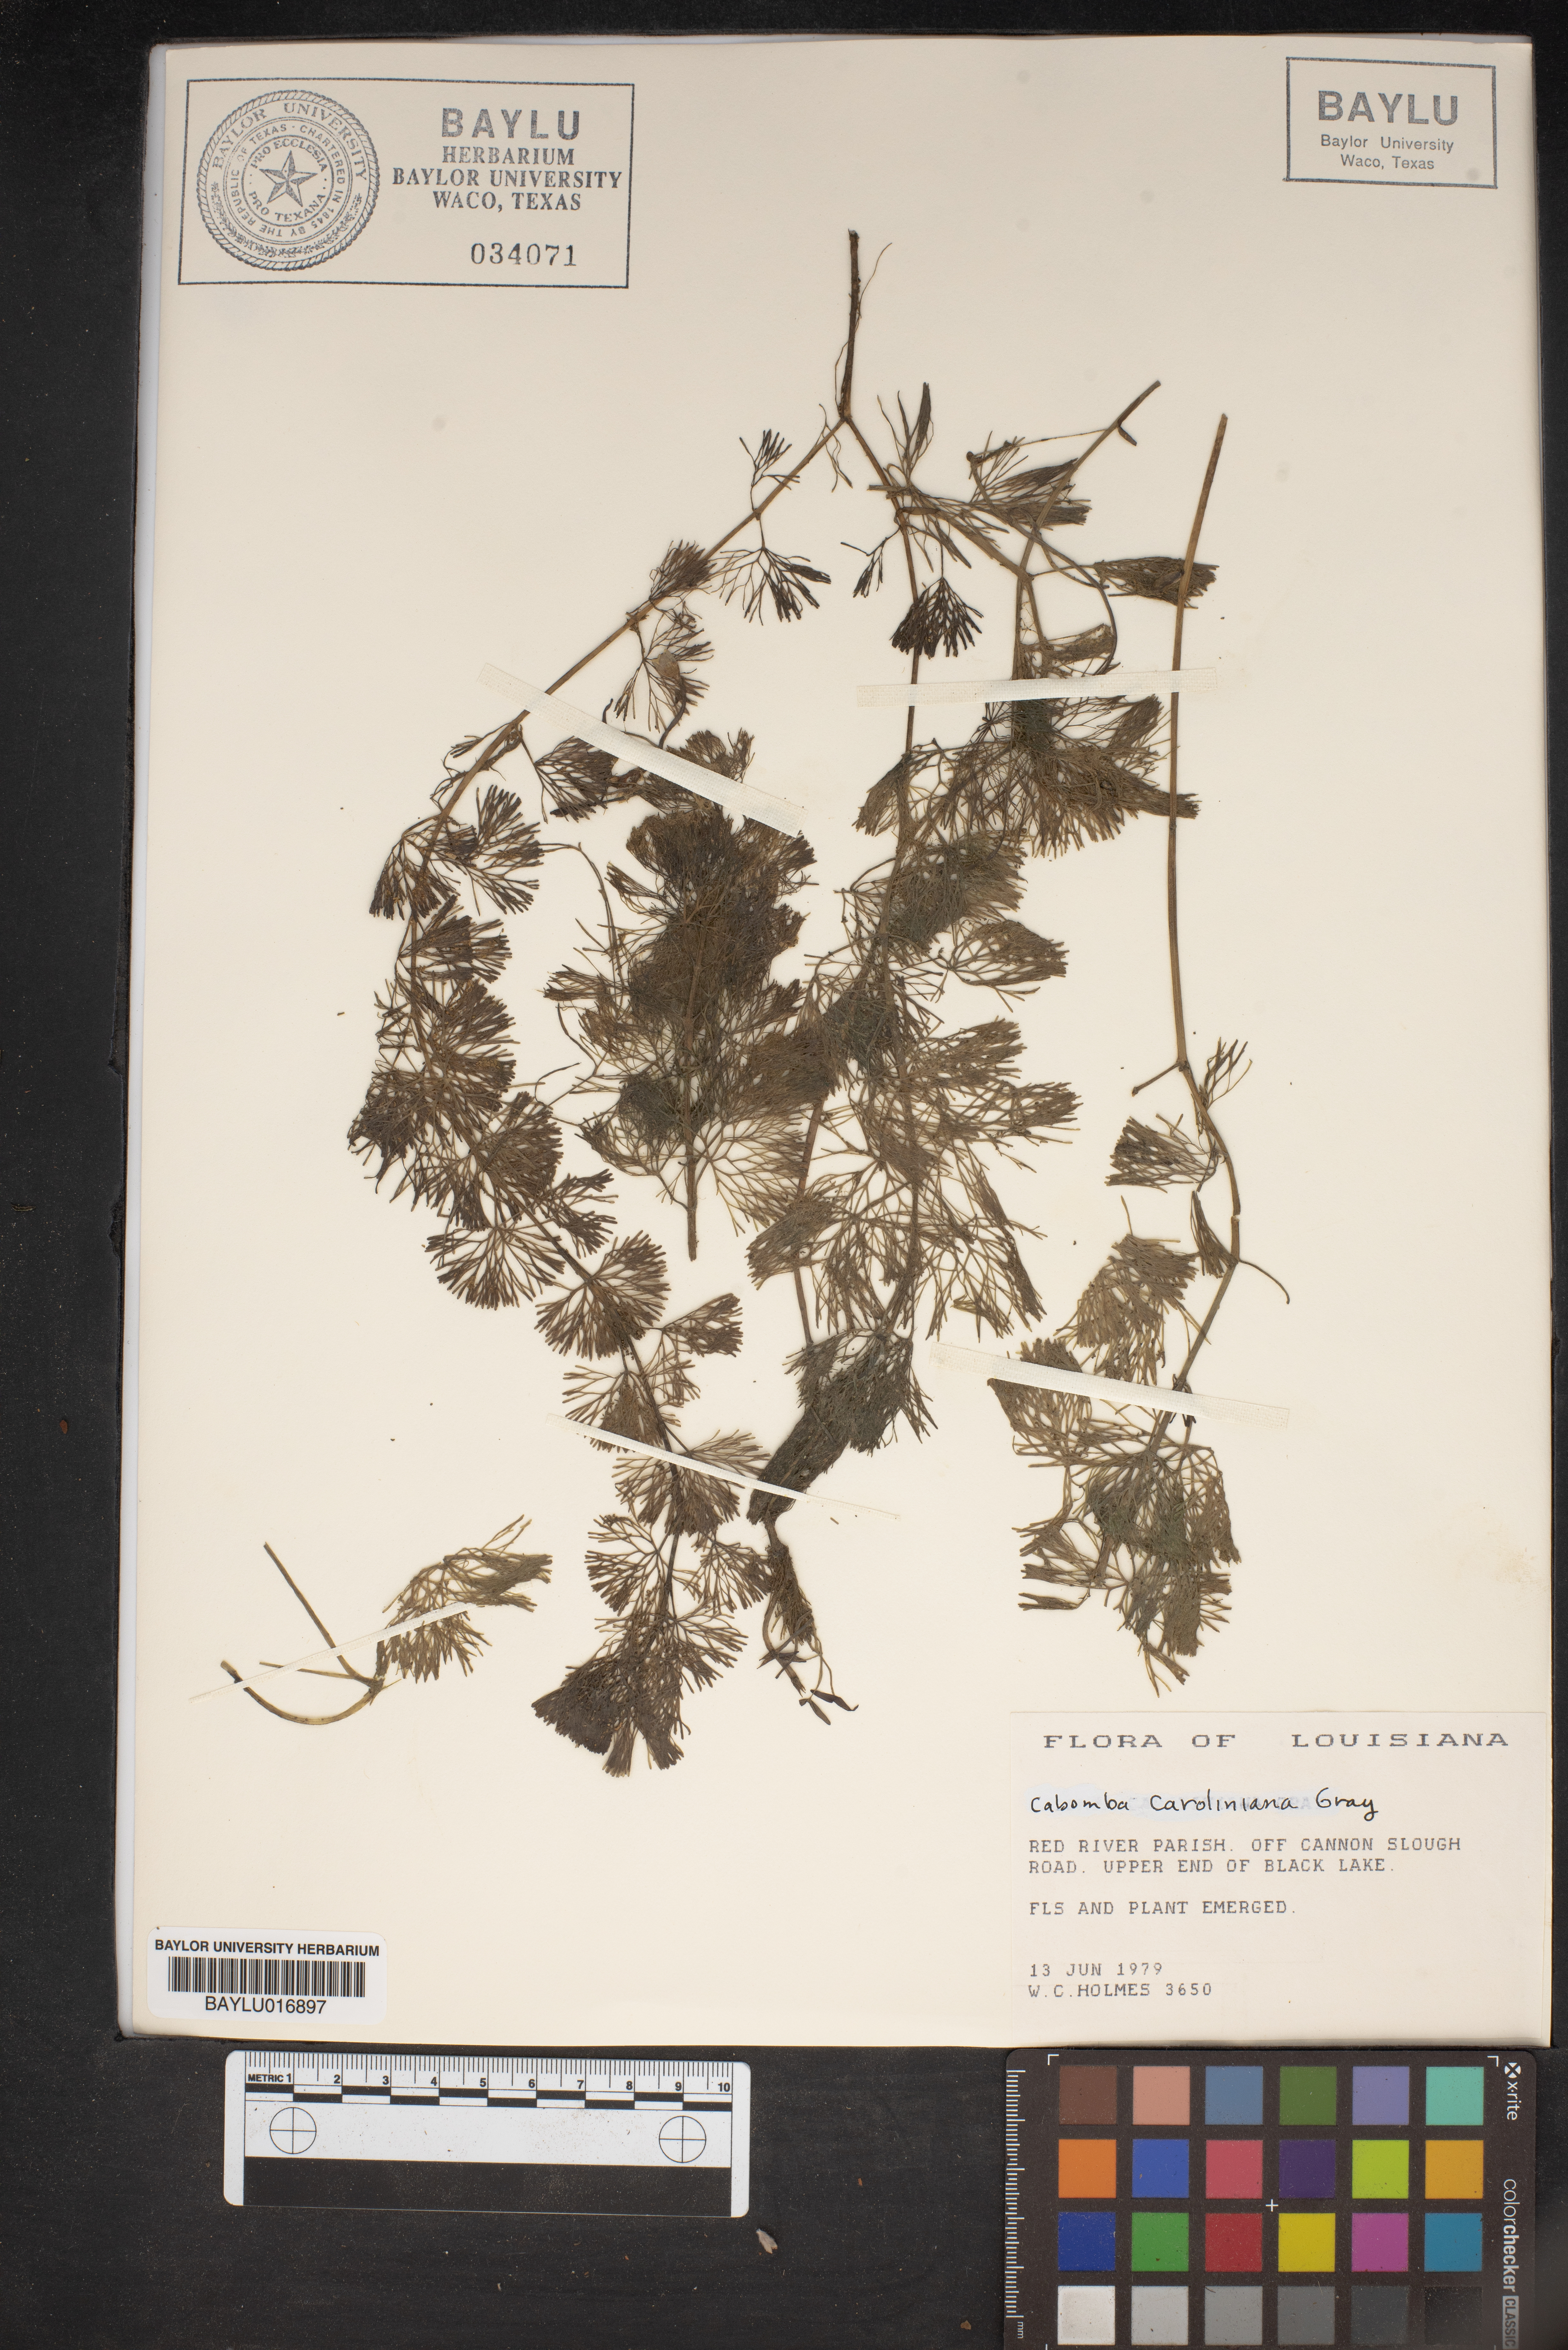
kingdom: Plantae
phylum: Tracheophyta
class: Magnoliopsida
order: Nymphaeales
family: Cabombaceae
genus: Cabomba
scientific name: Cabomba caroliniana
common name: Fanwort
